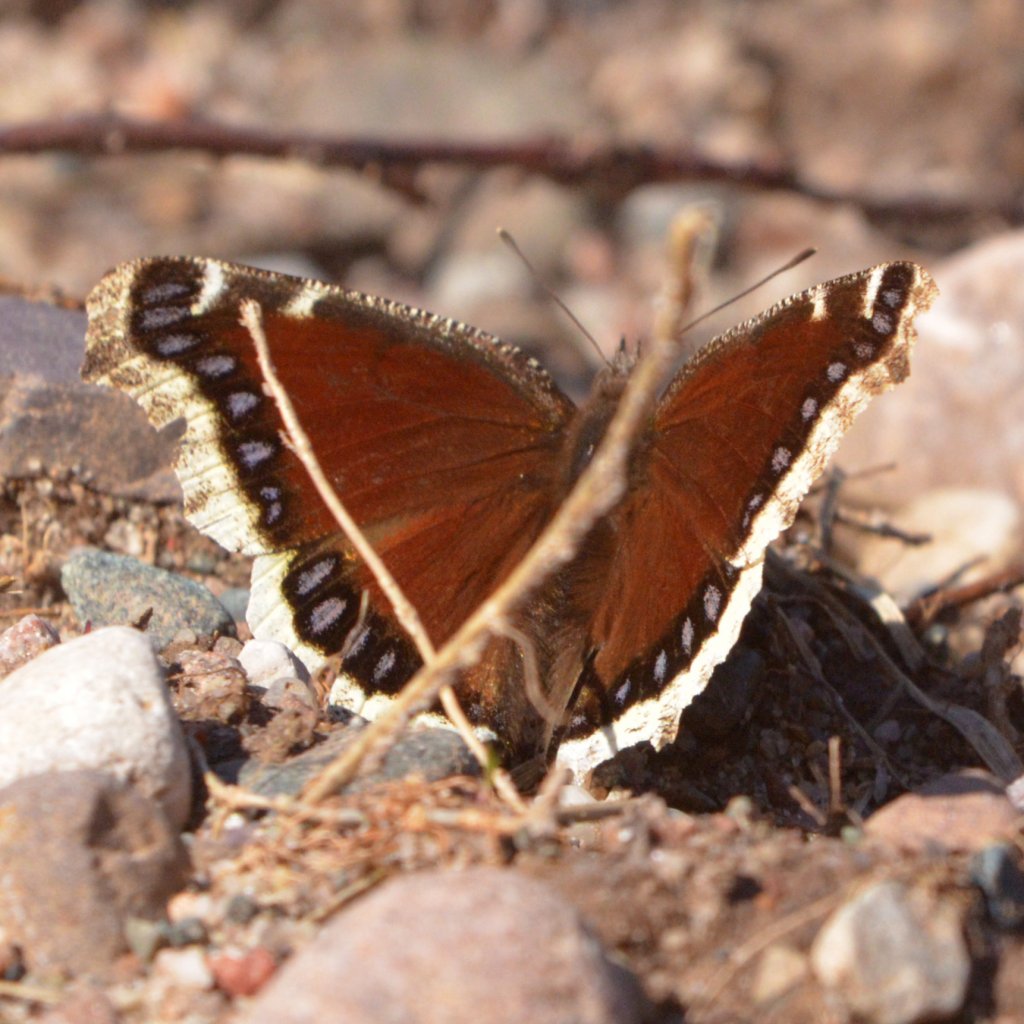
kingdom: Animalia
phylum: Arthropoda
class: Insecta
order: Lepidoptera
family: Nymphalidae
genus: Nymphalis
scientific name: Nymphalis antiopa
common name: Mourning Cloak
